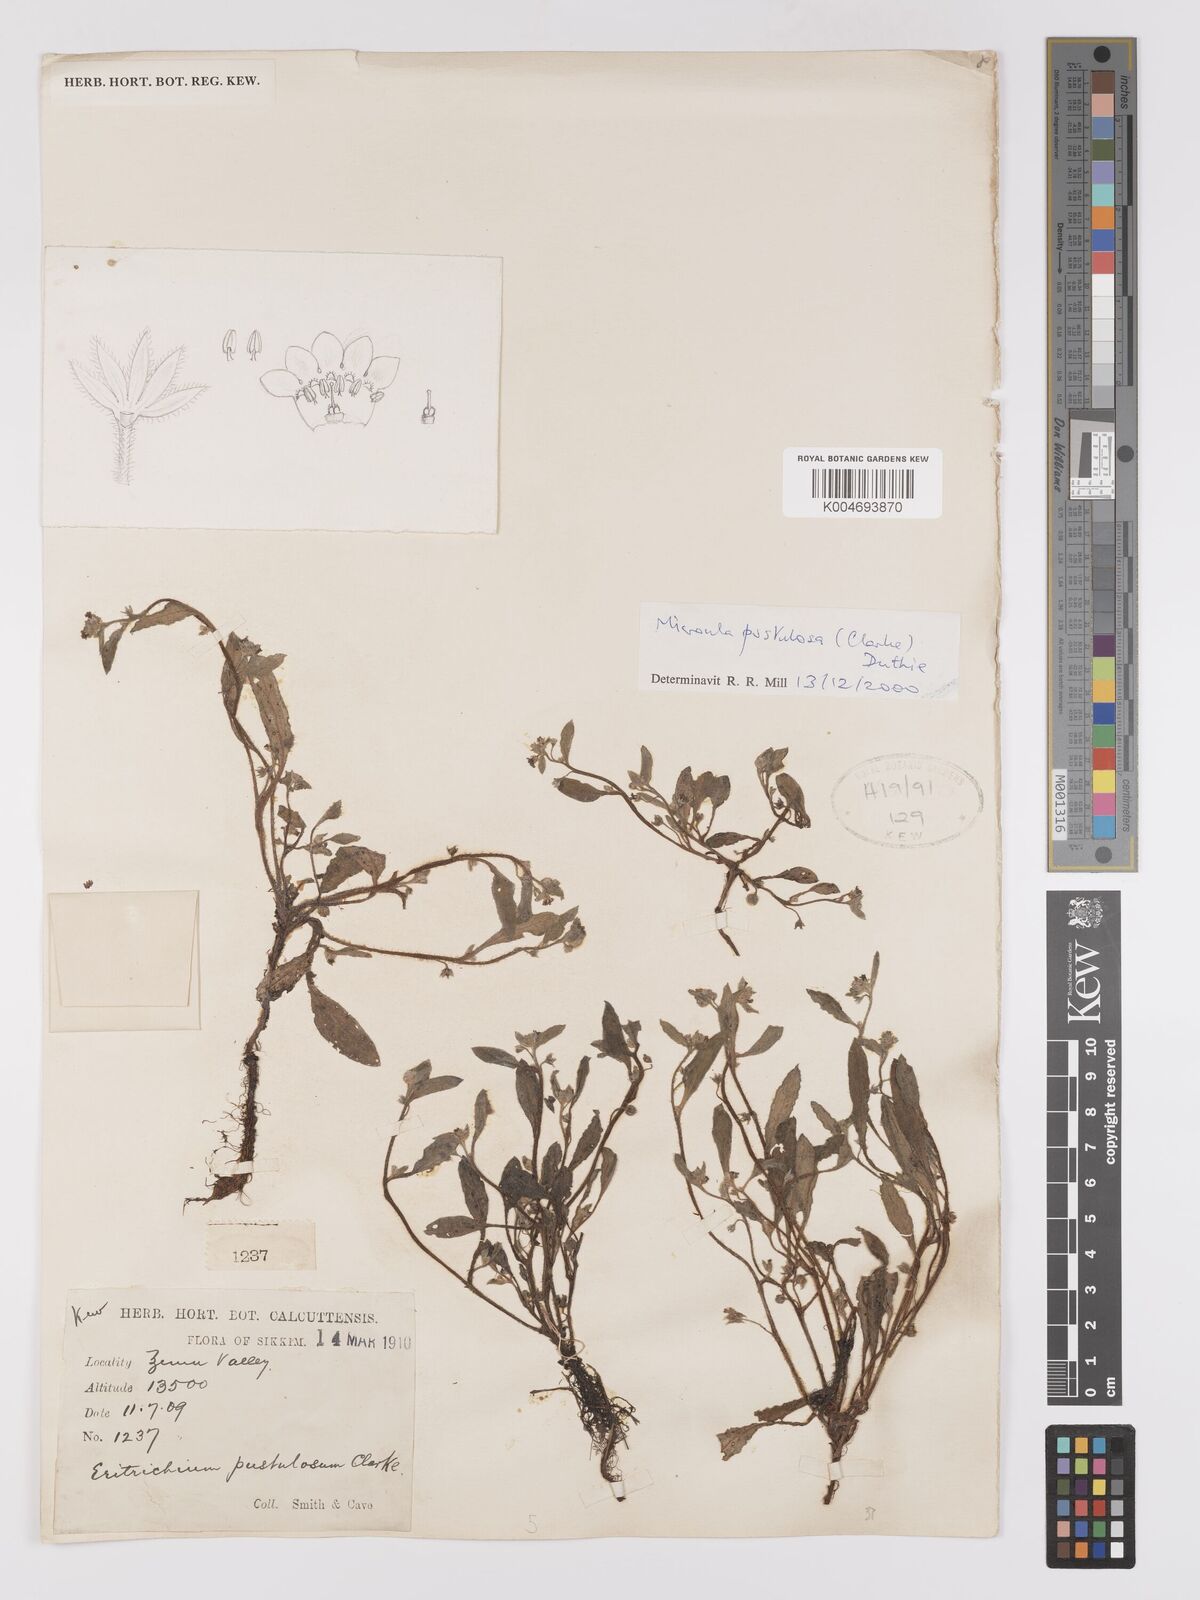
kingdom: Plantae
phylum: Tracheophyta
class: Magnoliopsida
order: Boraginales
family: Boraginaceae
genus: Microula
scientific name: Microula pustulosa
